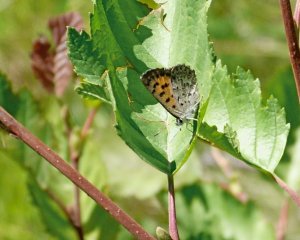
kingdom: Animalia
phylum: Arthropoda
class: Insecta
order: Lepidoptera
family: Lycaenidae
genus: Lycaena
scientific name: Lycaena mariposa
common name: Mariposa Copper
